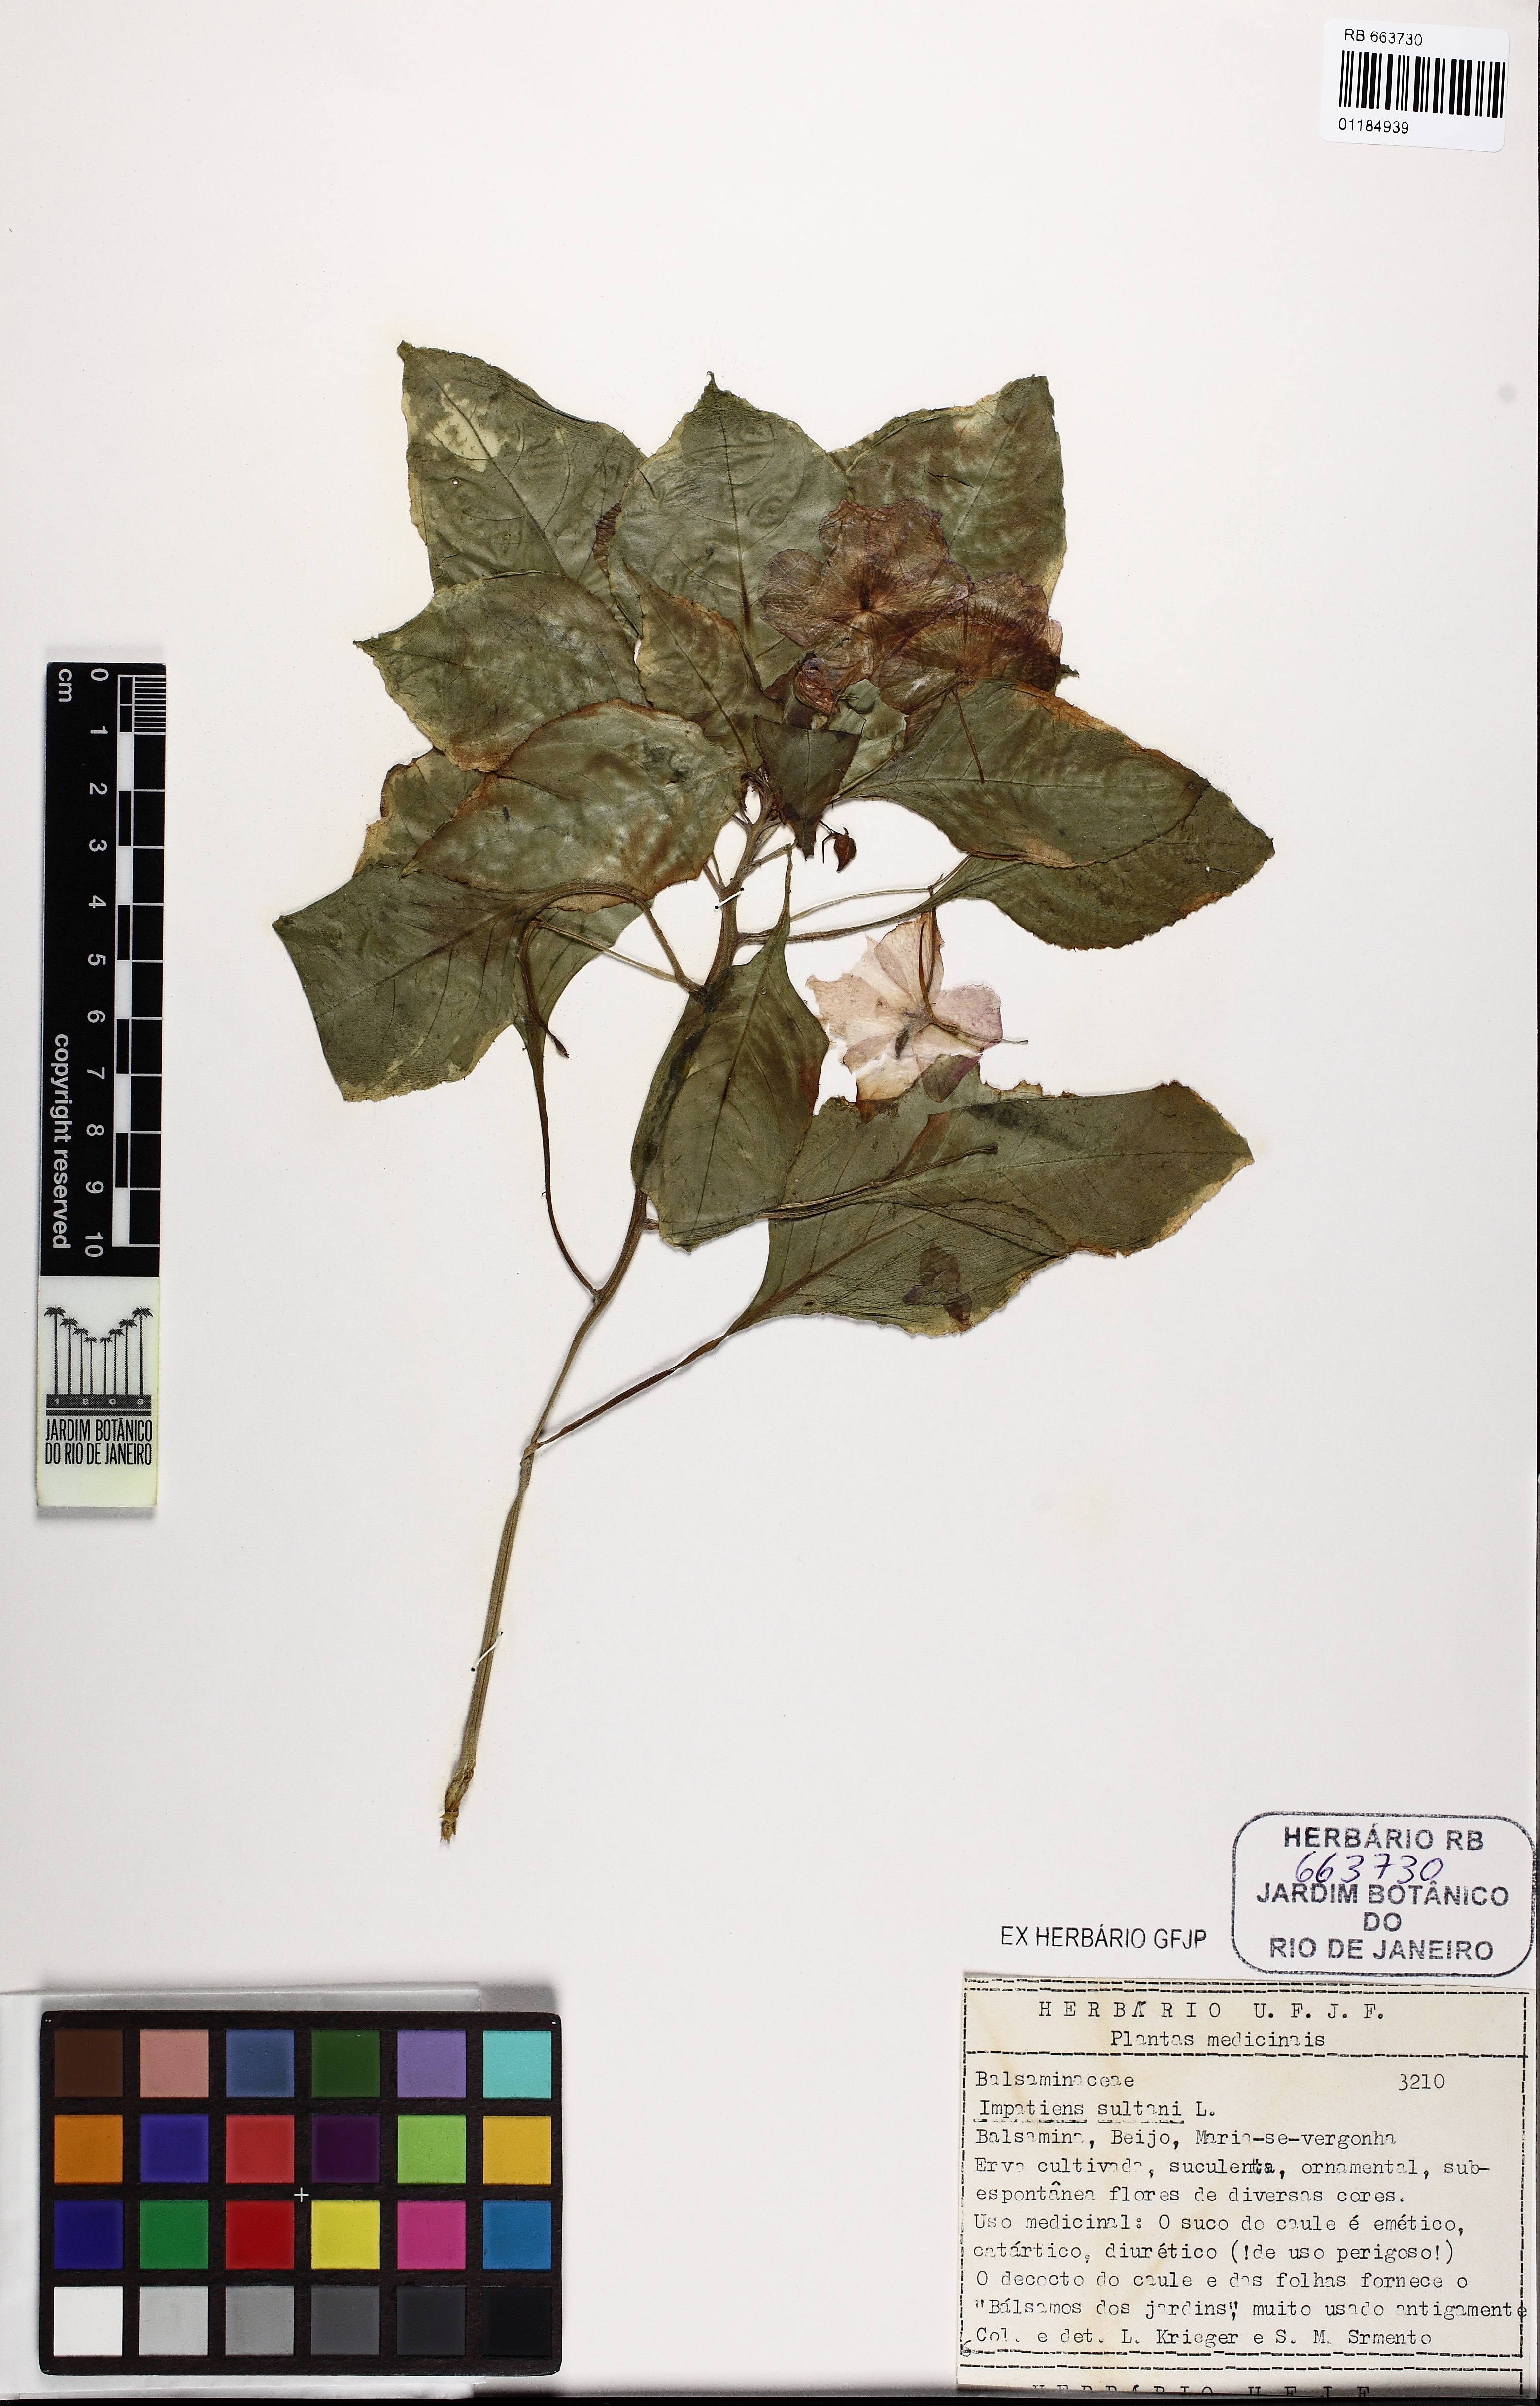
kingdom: Plantae
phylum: Tracheophyta
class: Magnoliopsida
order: Ericales
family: Balsaminaceae
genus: Impatiens
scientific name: Impatiens walleriana
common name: Buzzy lizzy
